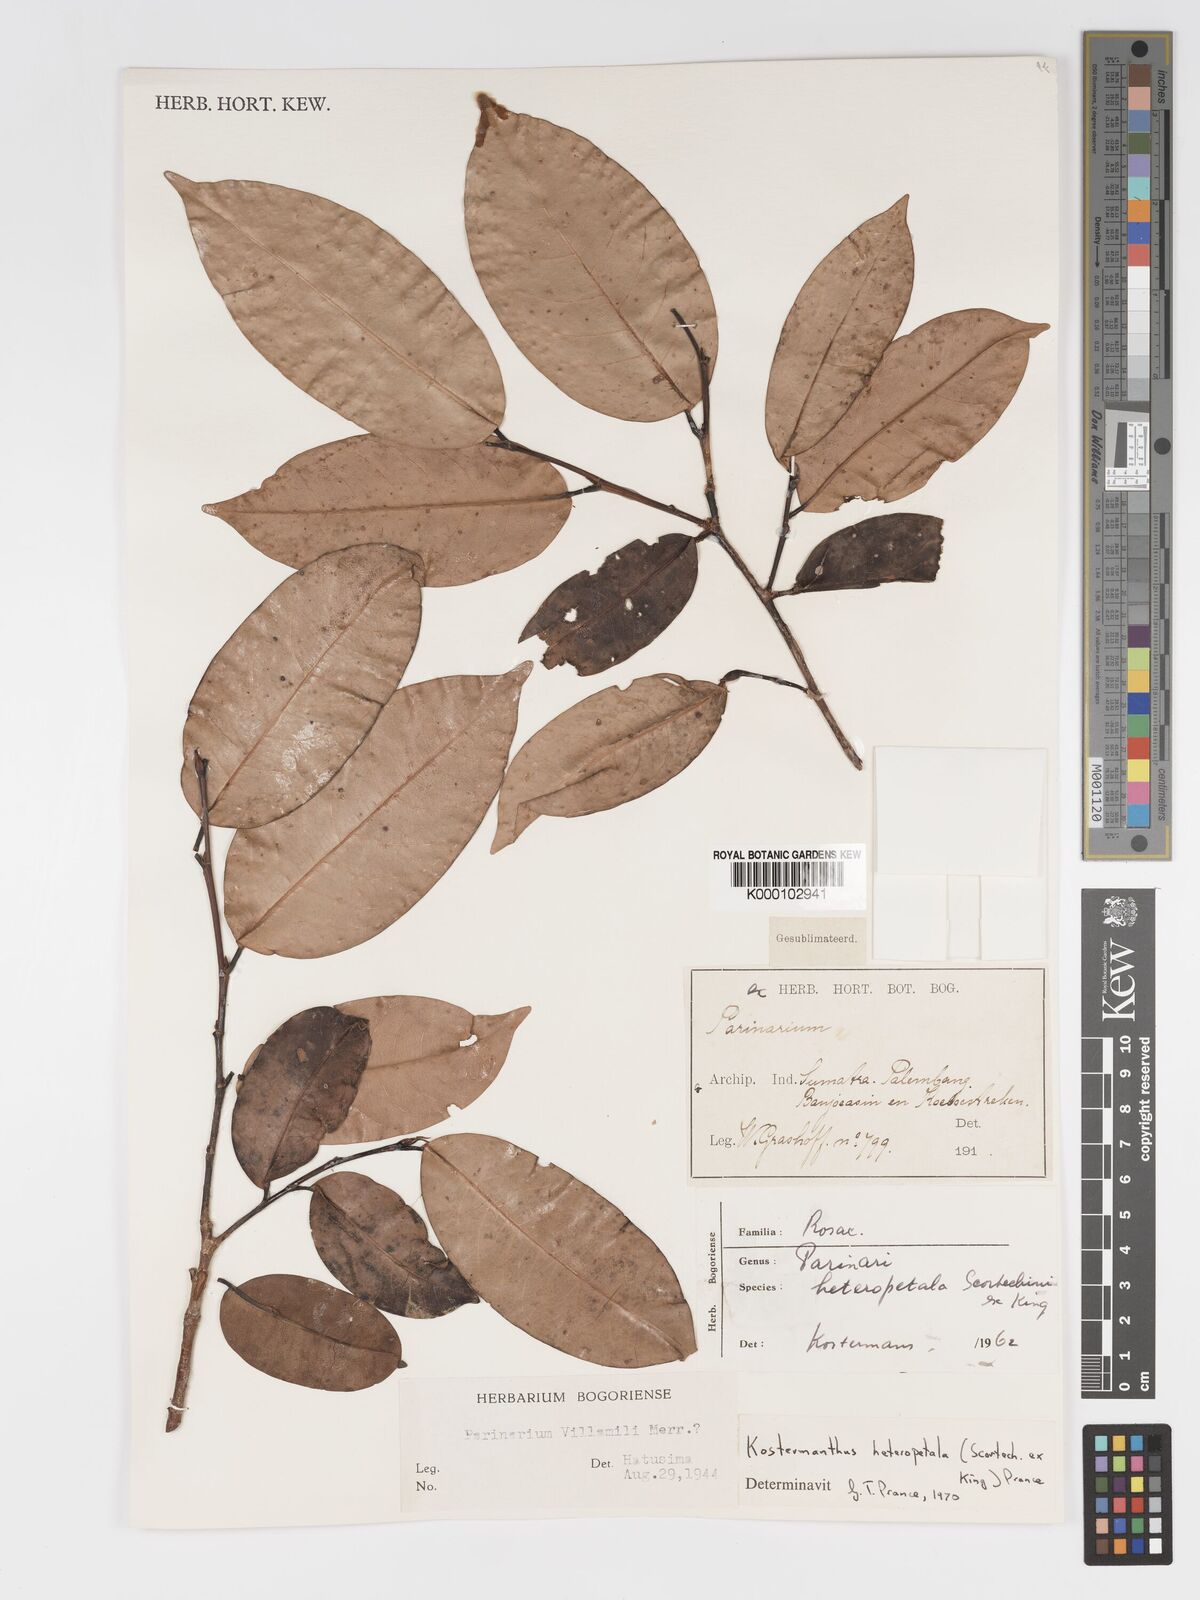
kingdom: Plantae
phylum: Tracheophyta
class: Magnoliopsida
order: Malpighiales
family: Chrysobalanaceae
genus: Kostermanthus
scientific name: Kostermanthus heteropetalus
